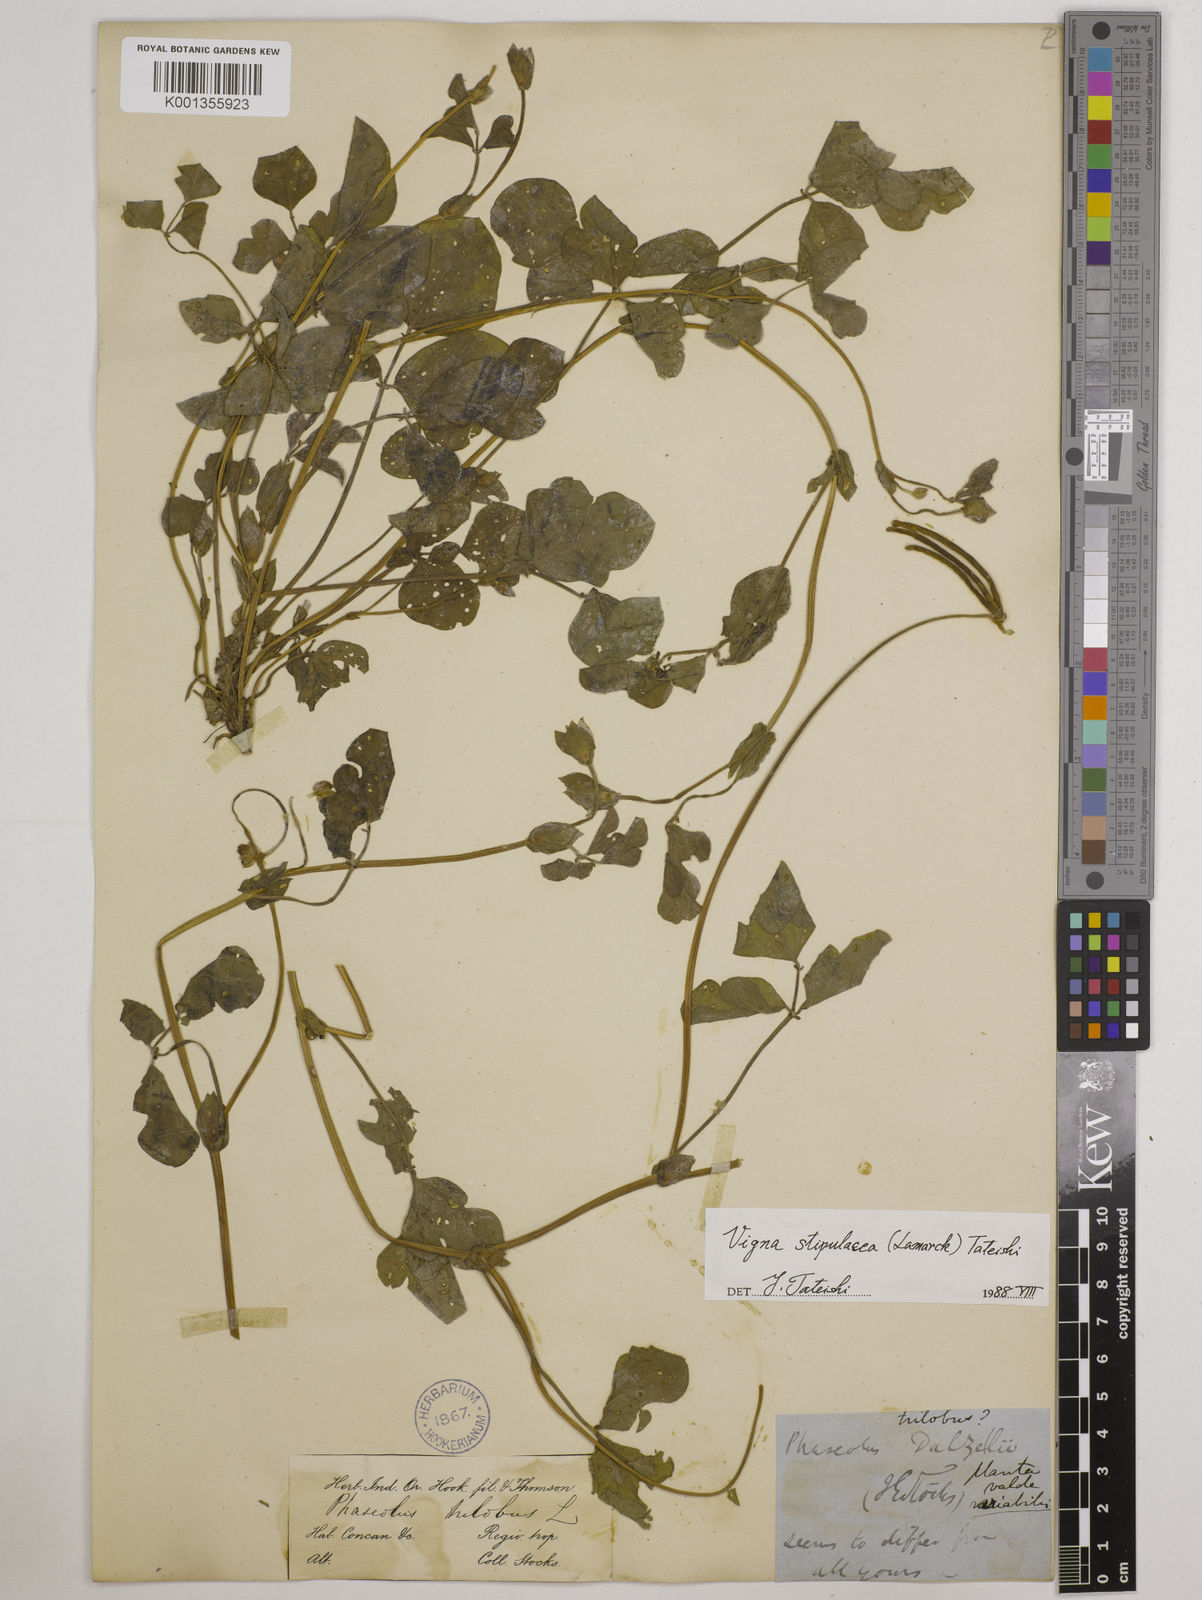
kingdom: Plantae
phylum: Tracheophyta
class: Magnoliopsida
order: Fabales
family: Fabaceae
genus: Pueraria
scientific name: Pueraria montana
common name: Kudzu
